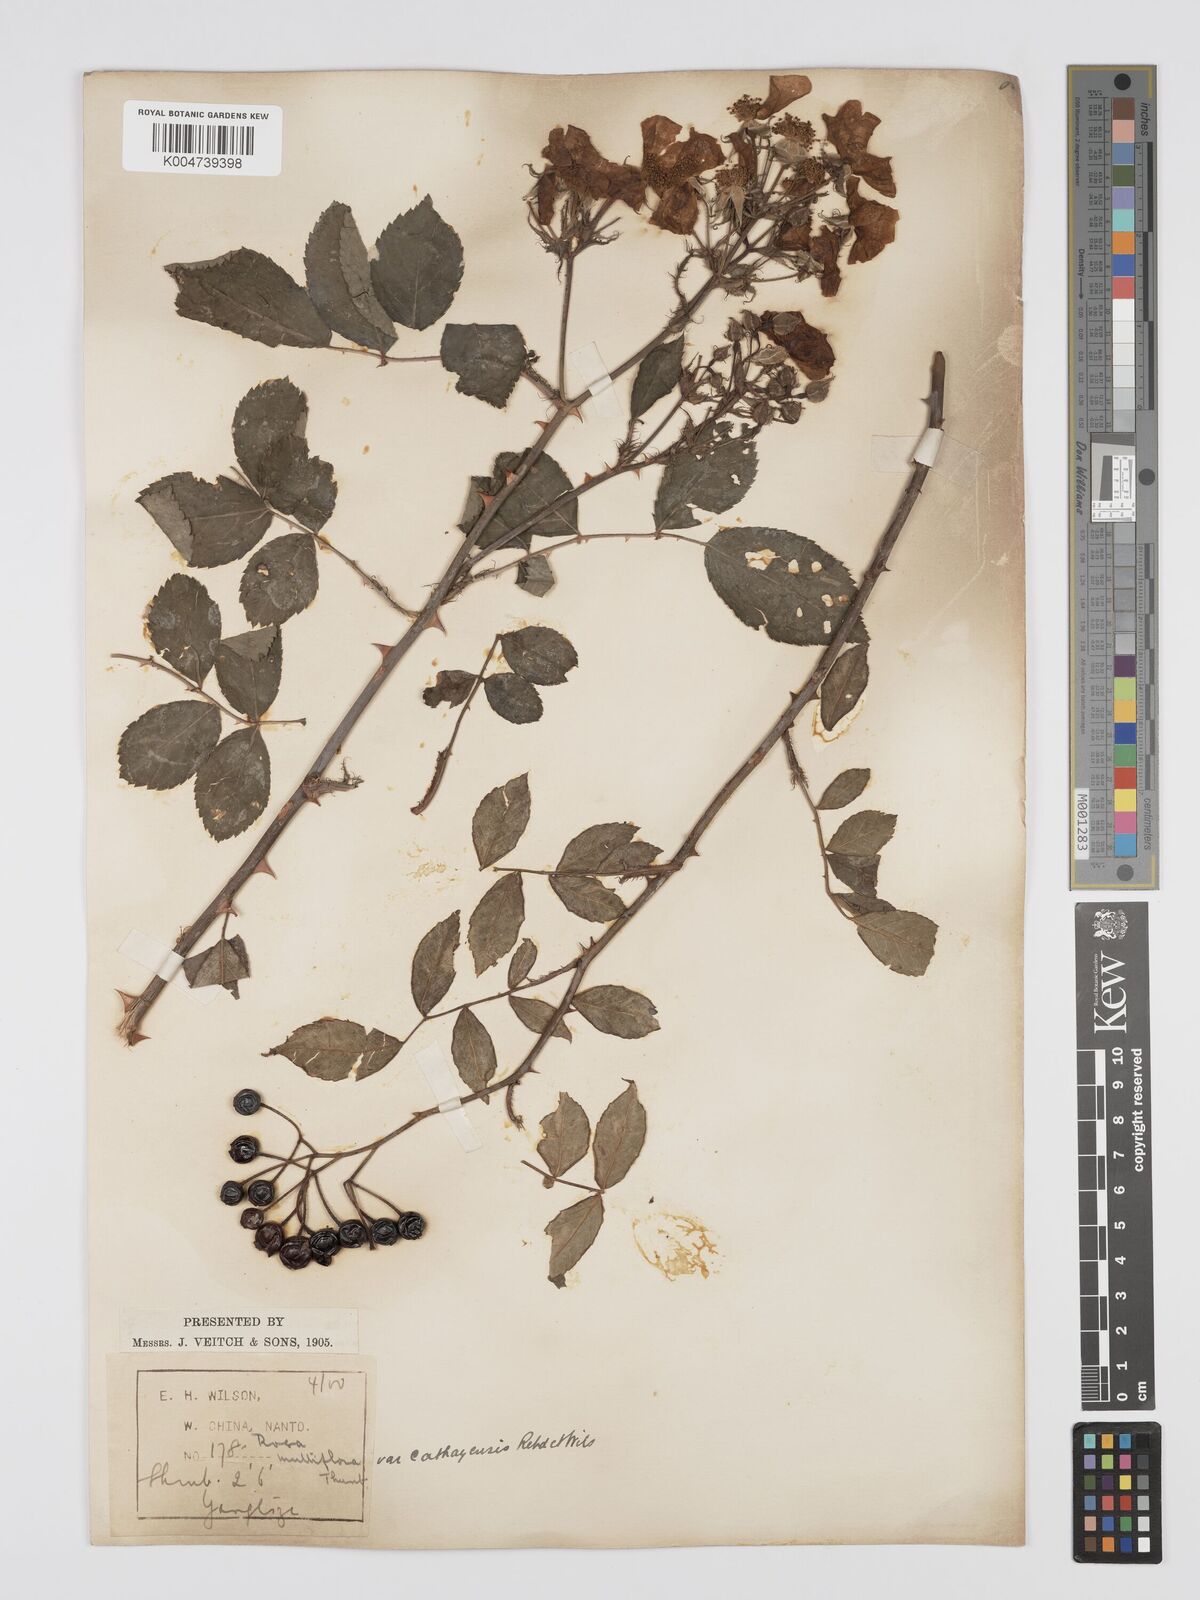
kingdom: Plantae
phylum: Tracheophyta
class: Magnoliopsida
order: Rosales
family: Rosaceae
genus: Rosa
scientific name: Rosa
